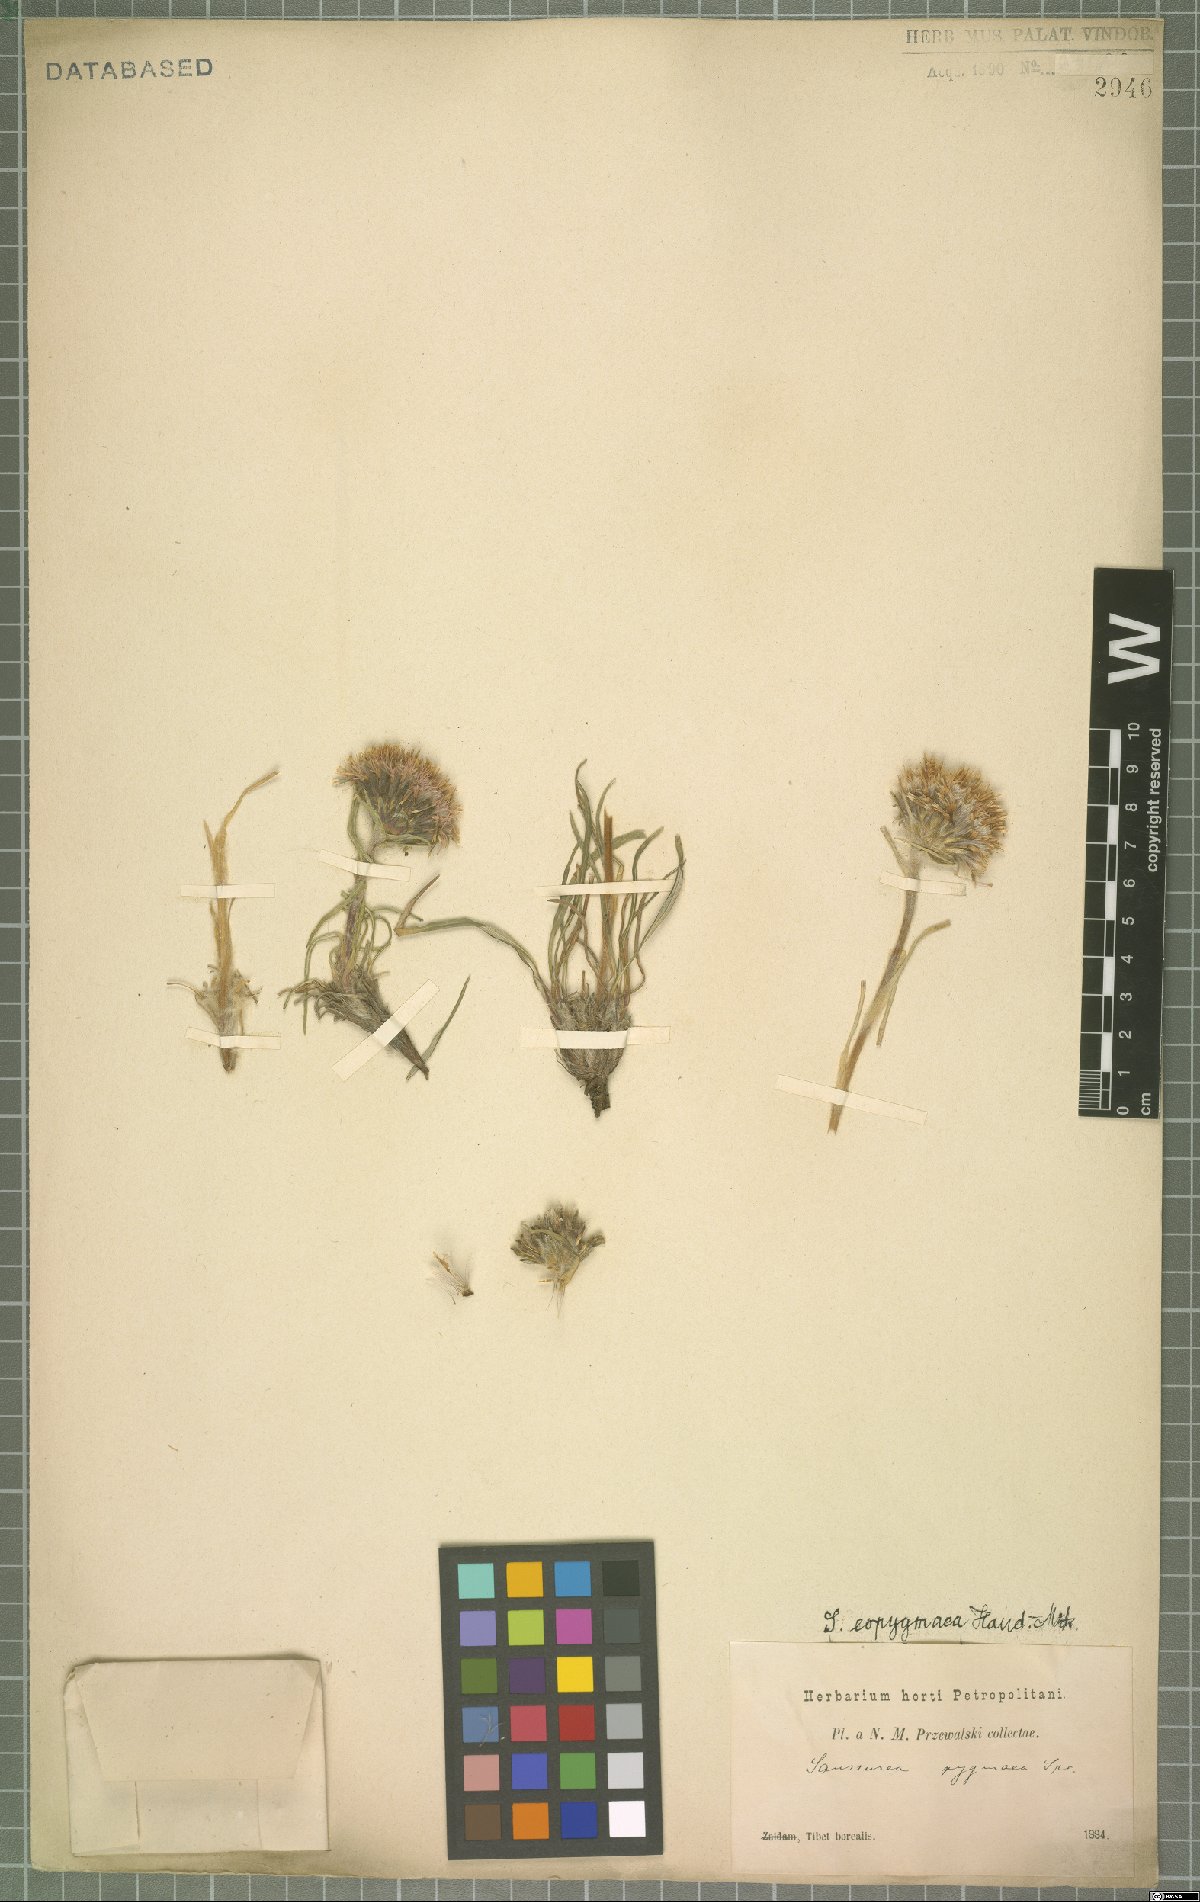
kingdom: Plantae
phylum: Tracheophyta
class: Magnoliopsida
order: Asterales
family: Asteraceae
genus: Saussurea
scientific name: Saussurea brunneopilosa
